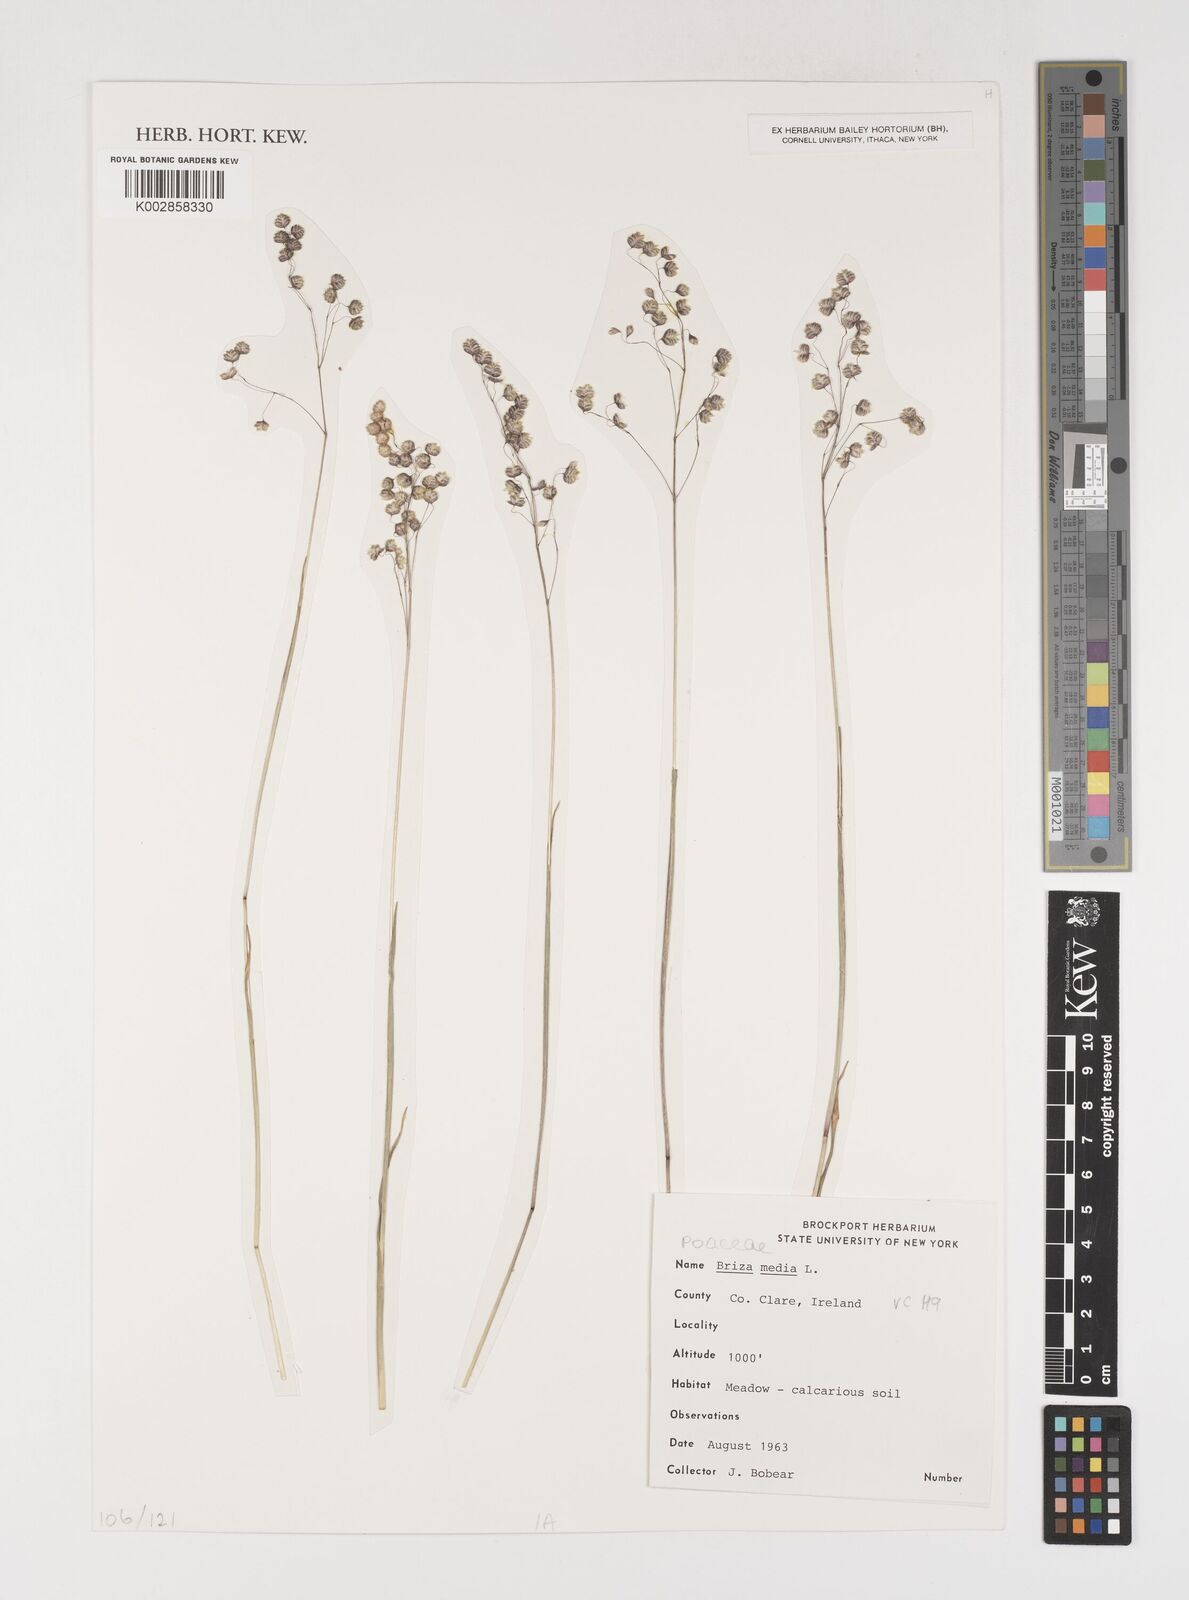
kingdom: Plantae
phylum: Tracheophyta
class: Liliopsida
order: Poales
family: Poaceae
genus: Briza
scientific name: Briza media
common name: Quaking grass
